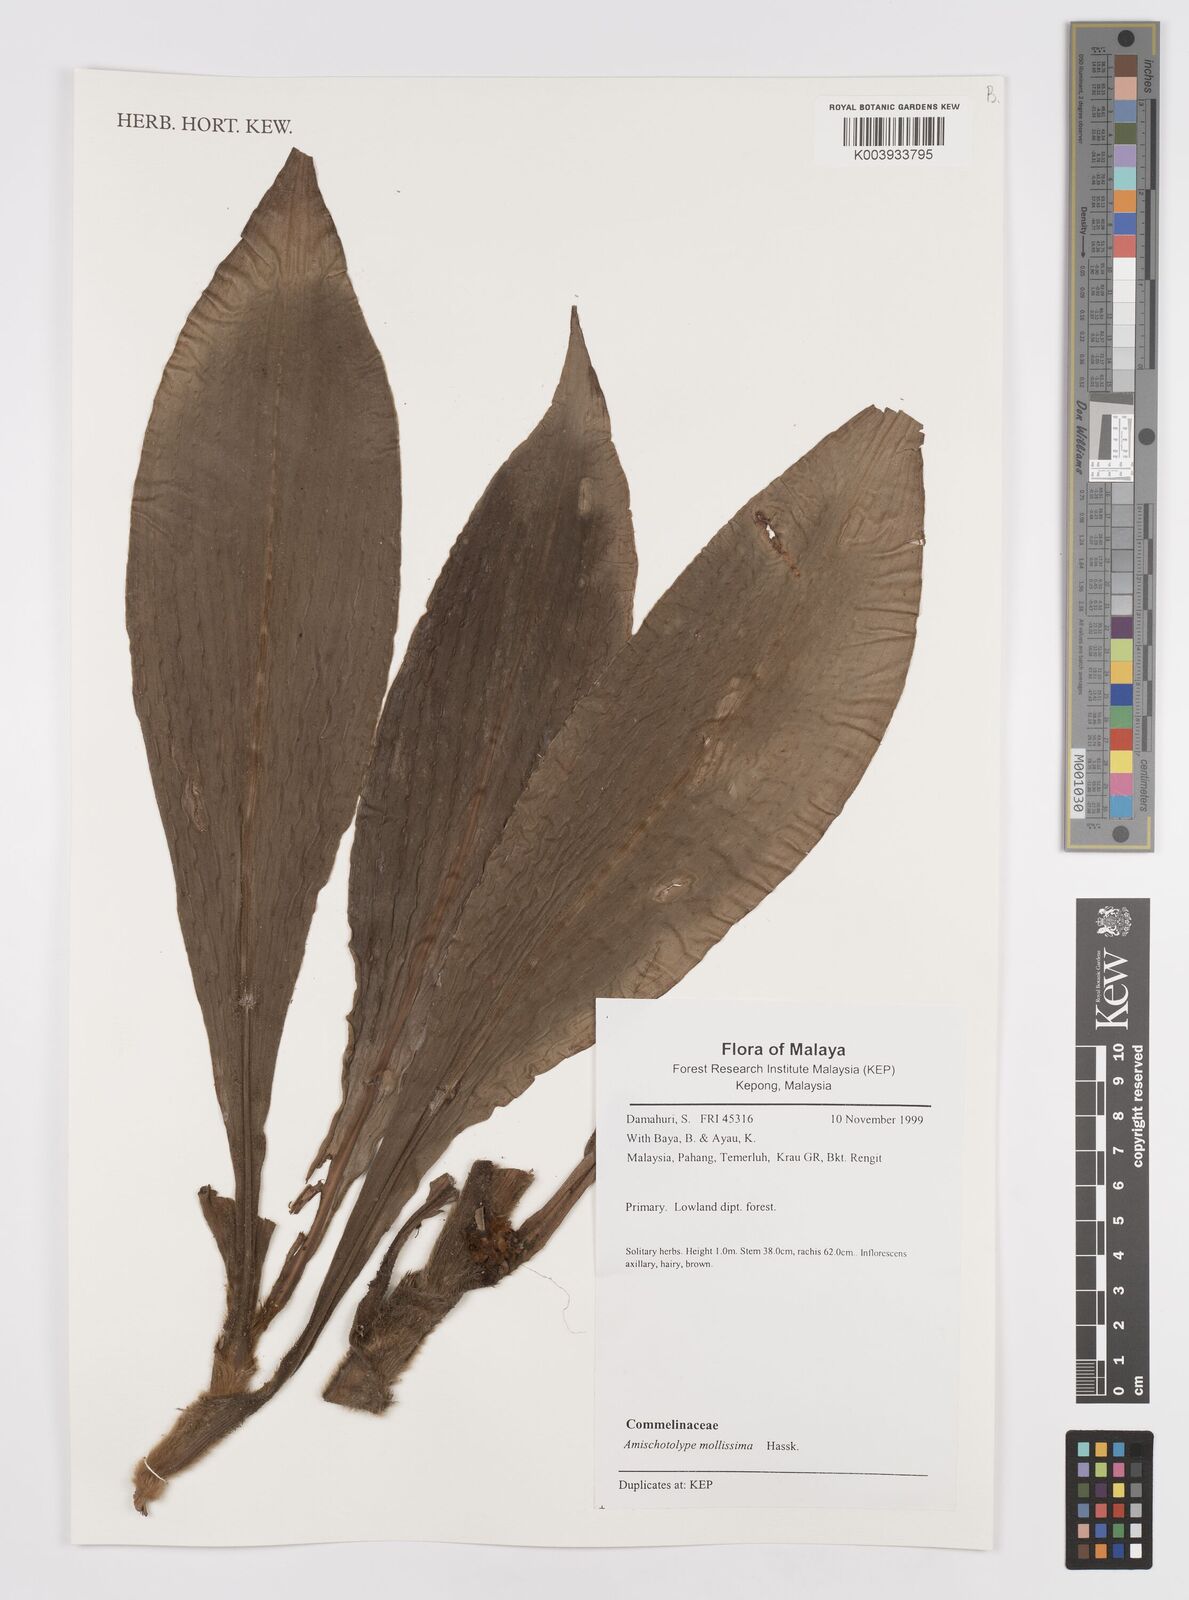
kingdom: Plantae
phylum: Tracheophyta
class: Liliopsida
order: Commelinales
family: Commelinaceae
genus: Amischotolype
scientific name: Amischotolype mollissima
